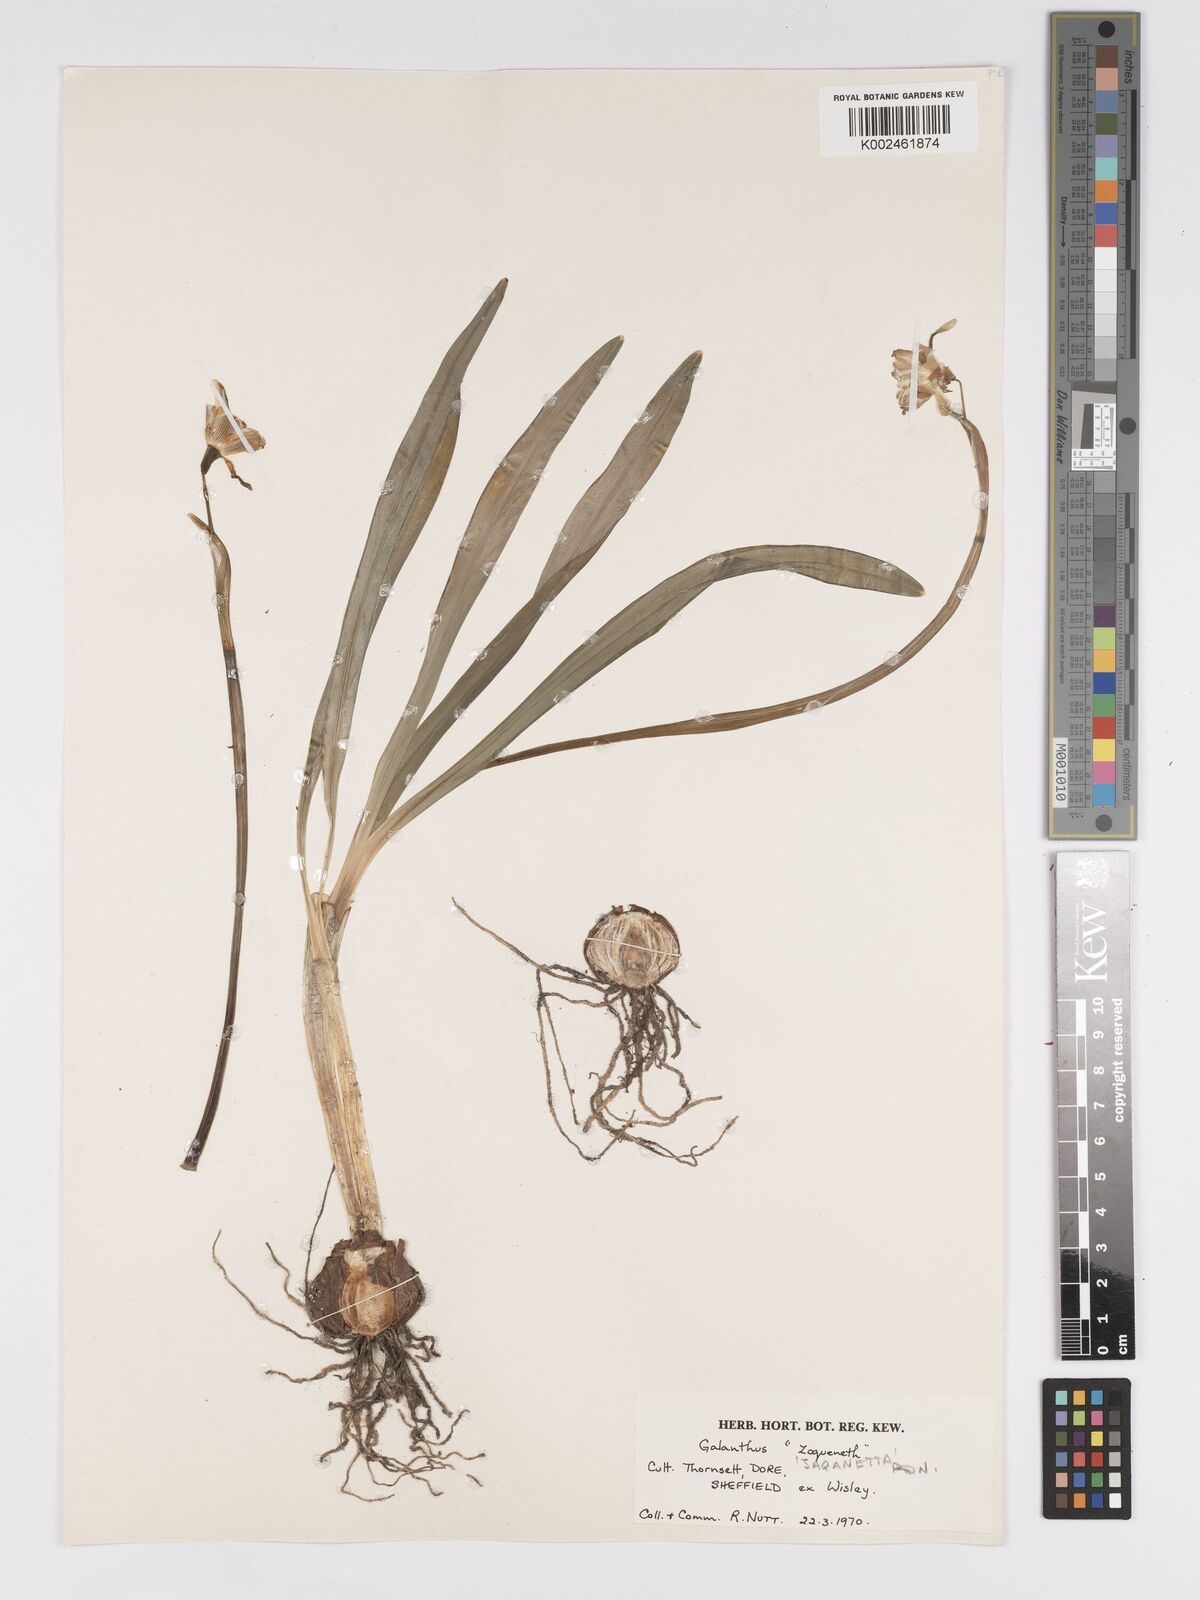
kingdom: Plantae
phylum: Tracheophyta
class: Liliopsida
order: Asparagales
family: Amaryllidaceae
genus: Galanthus
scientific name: Galanthus plicatus
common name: Pleated snowdrop
